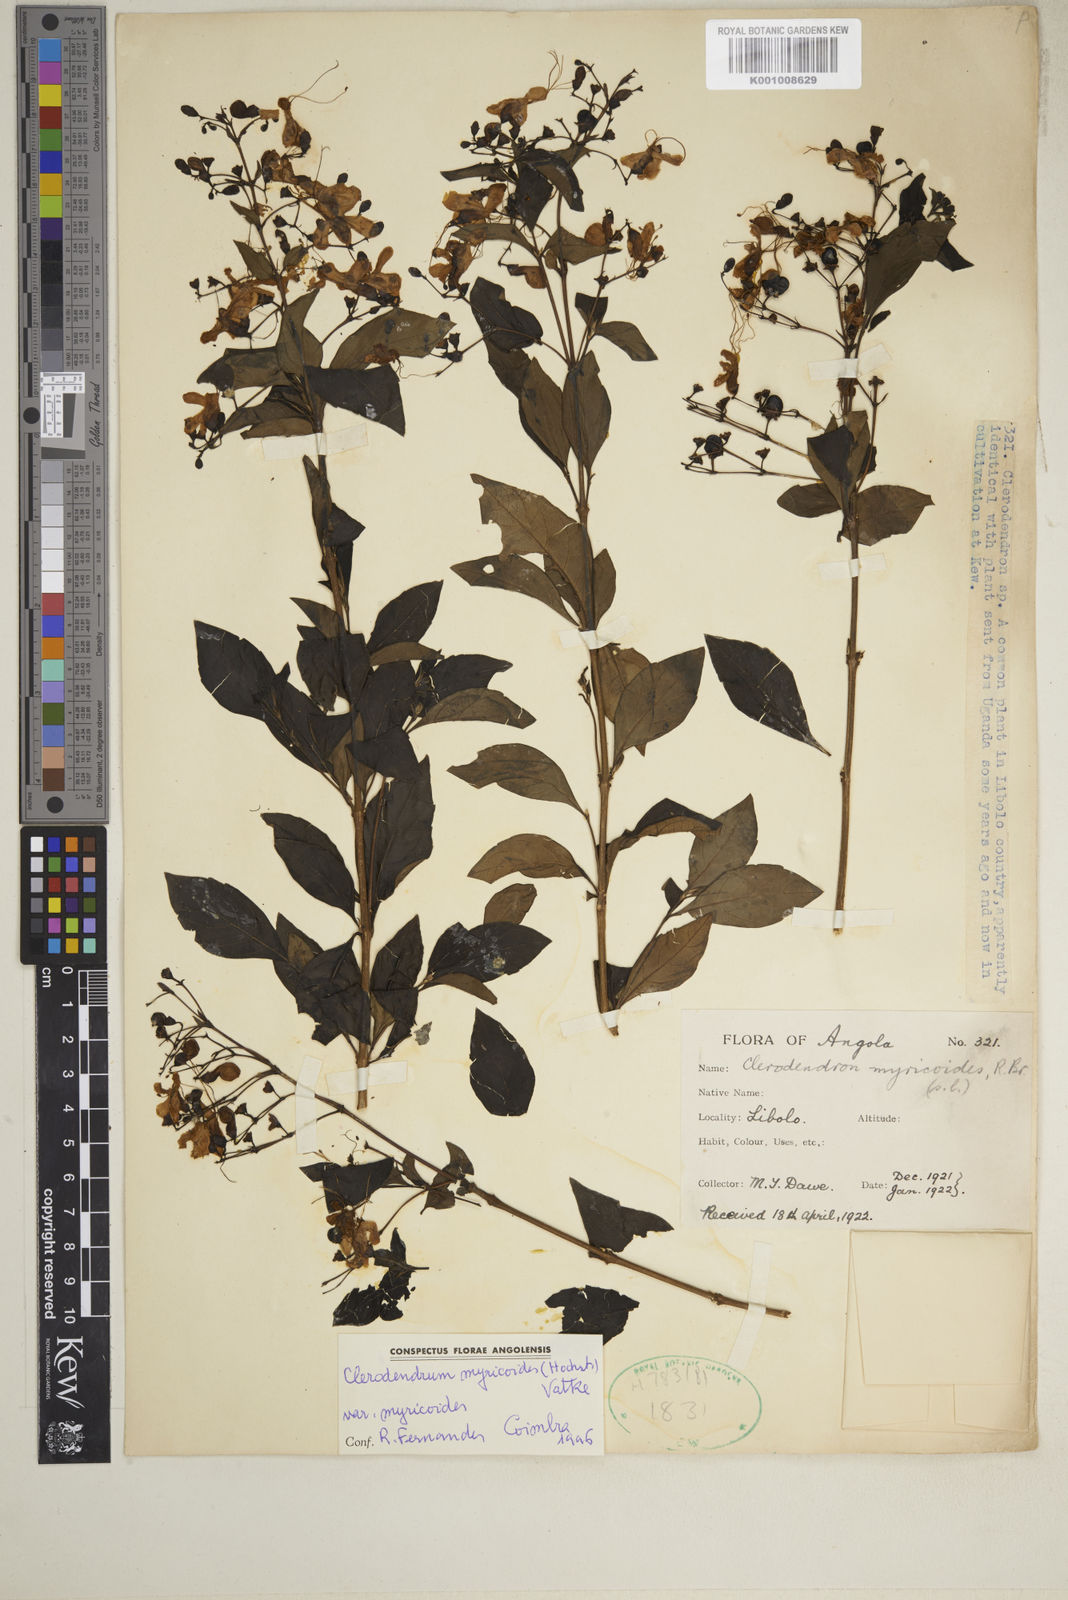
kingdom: Plantae
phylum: Tracheophyta
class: Magnoliopsida
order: Lamiales
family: Lamiaceae
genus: Rotheca
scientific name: Rotheca myricoides
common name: Cats-whiskers
